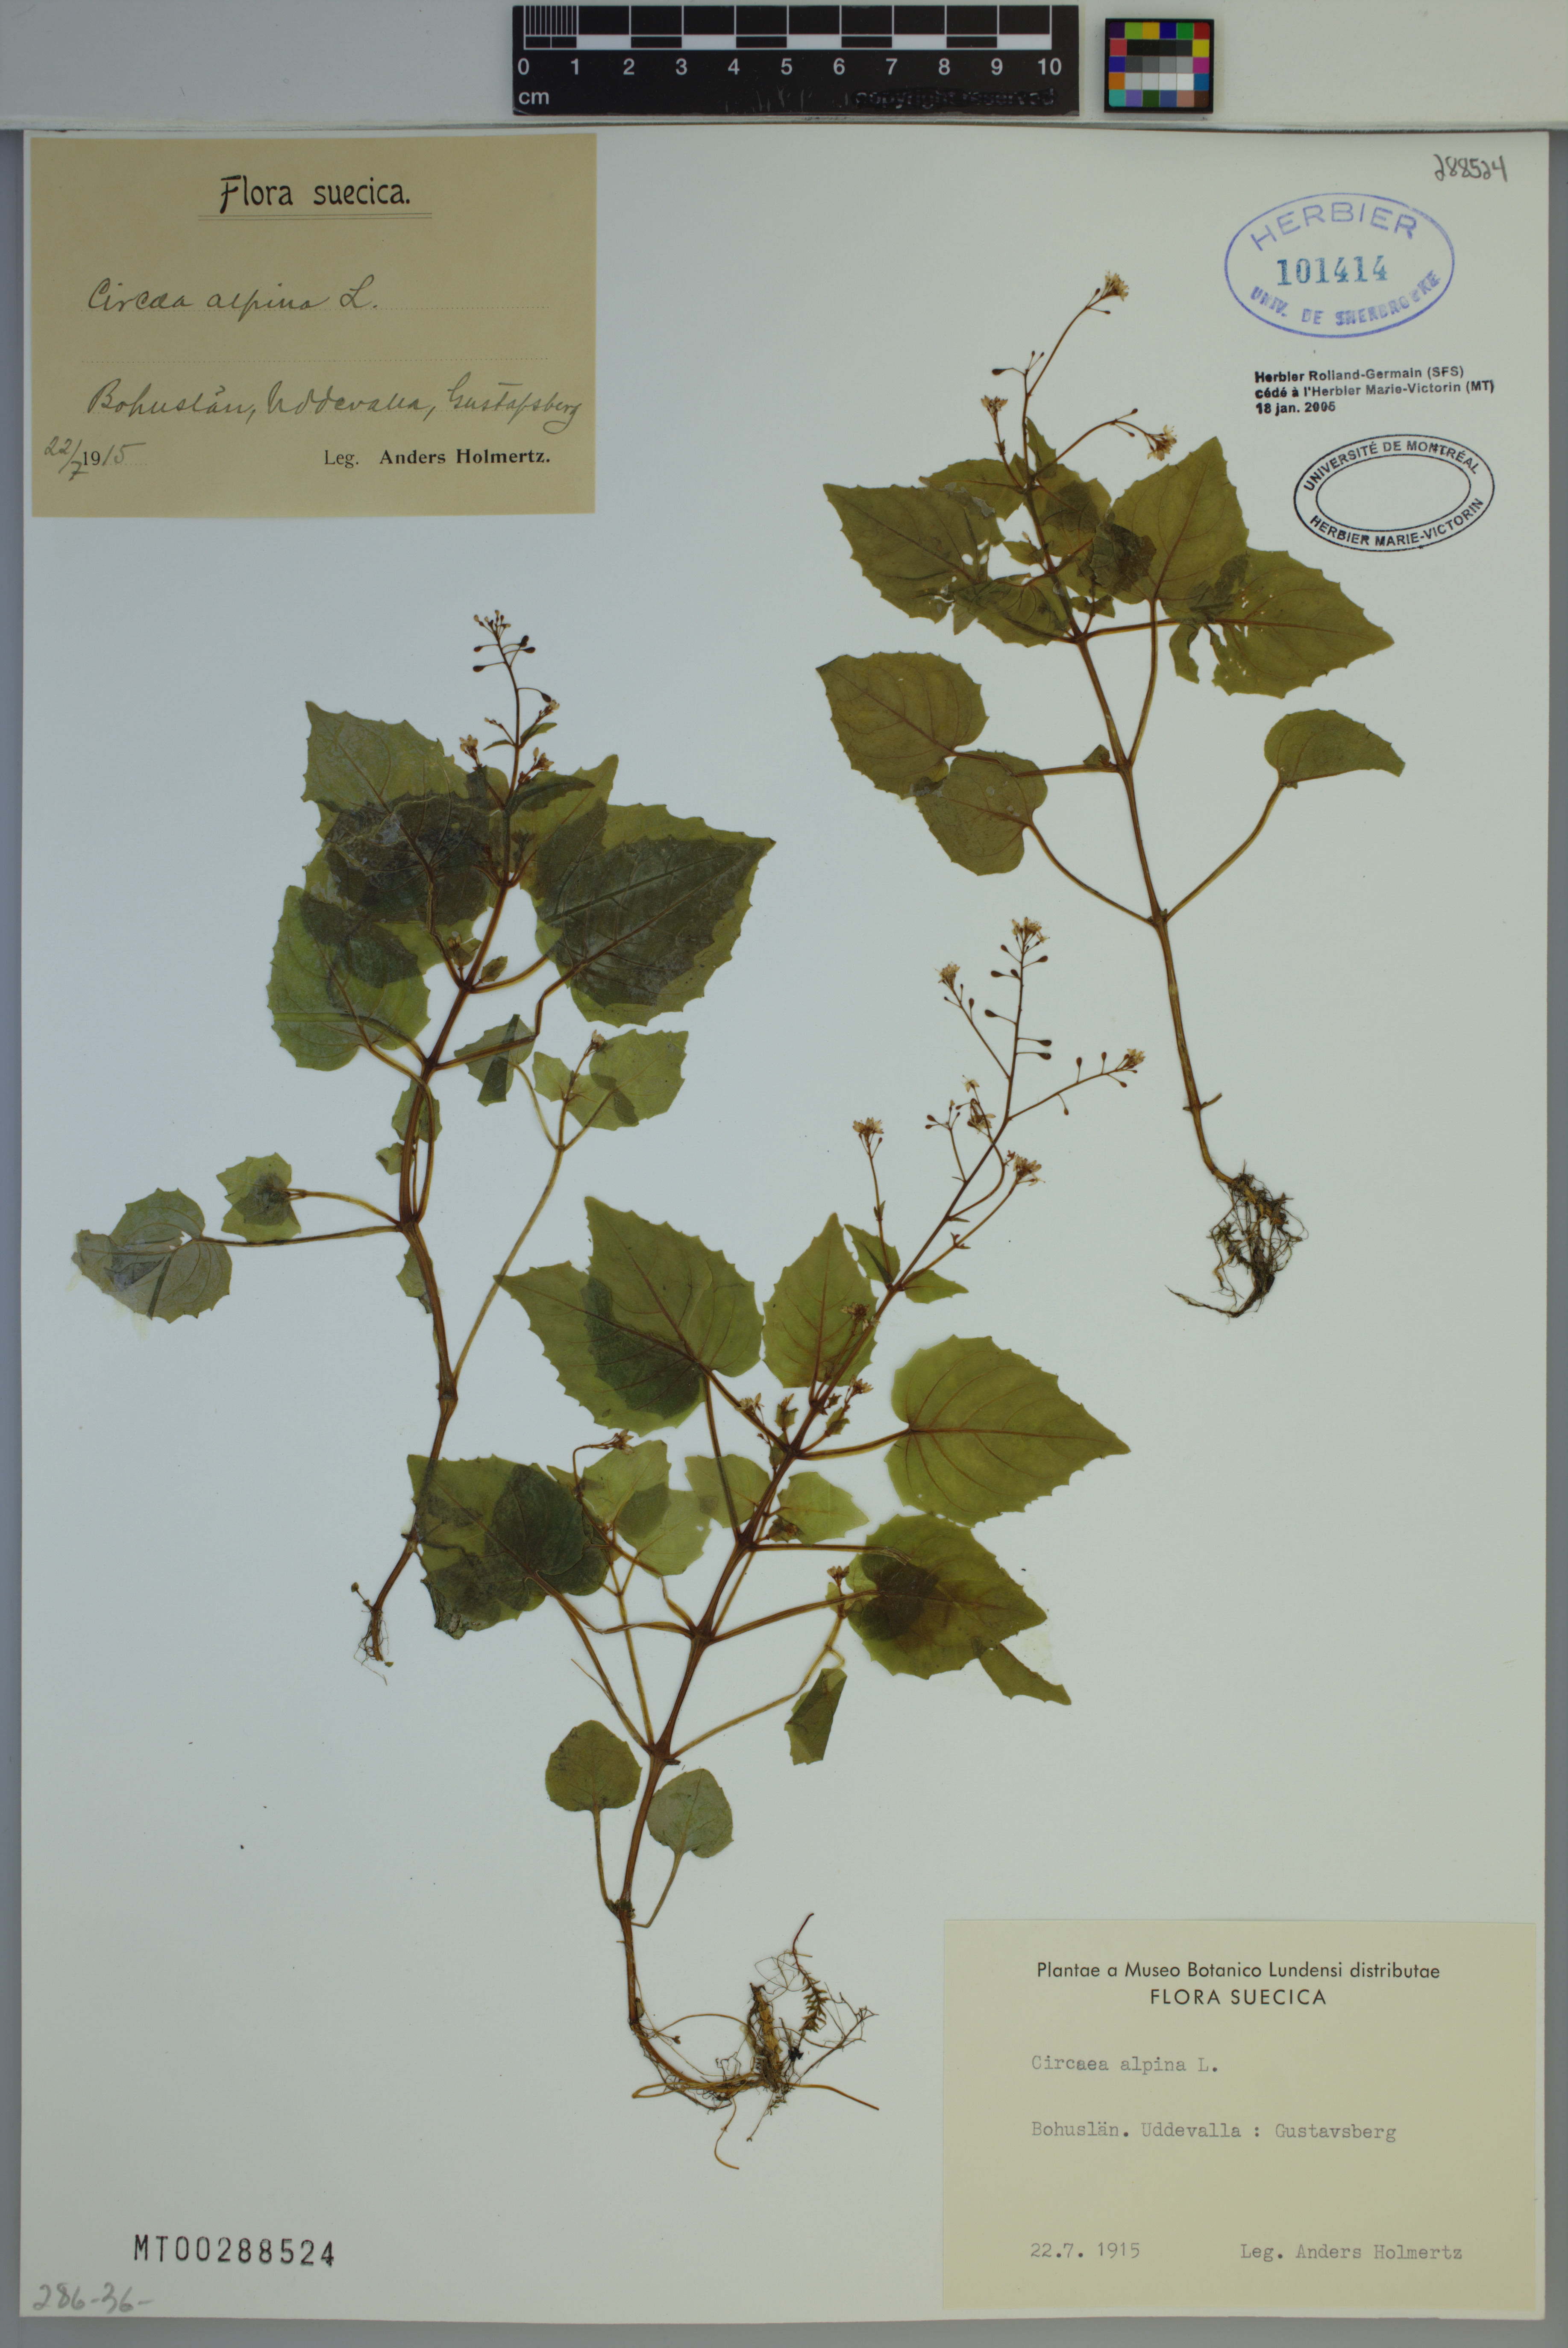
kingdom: Plantae
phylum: Tracheophyta
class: Magnoliopsida
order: Myrtales
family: Onagraceae
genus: Circaea
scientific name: Circaea alpina
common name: Alpine enchanter's-nightshade
